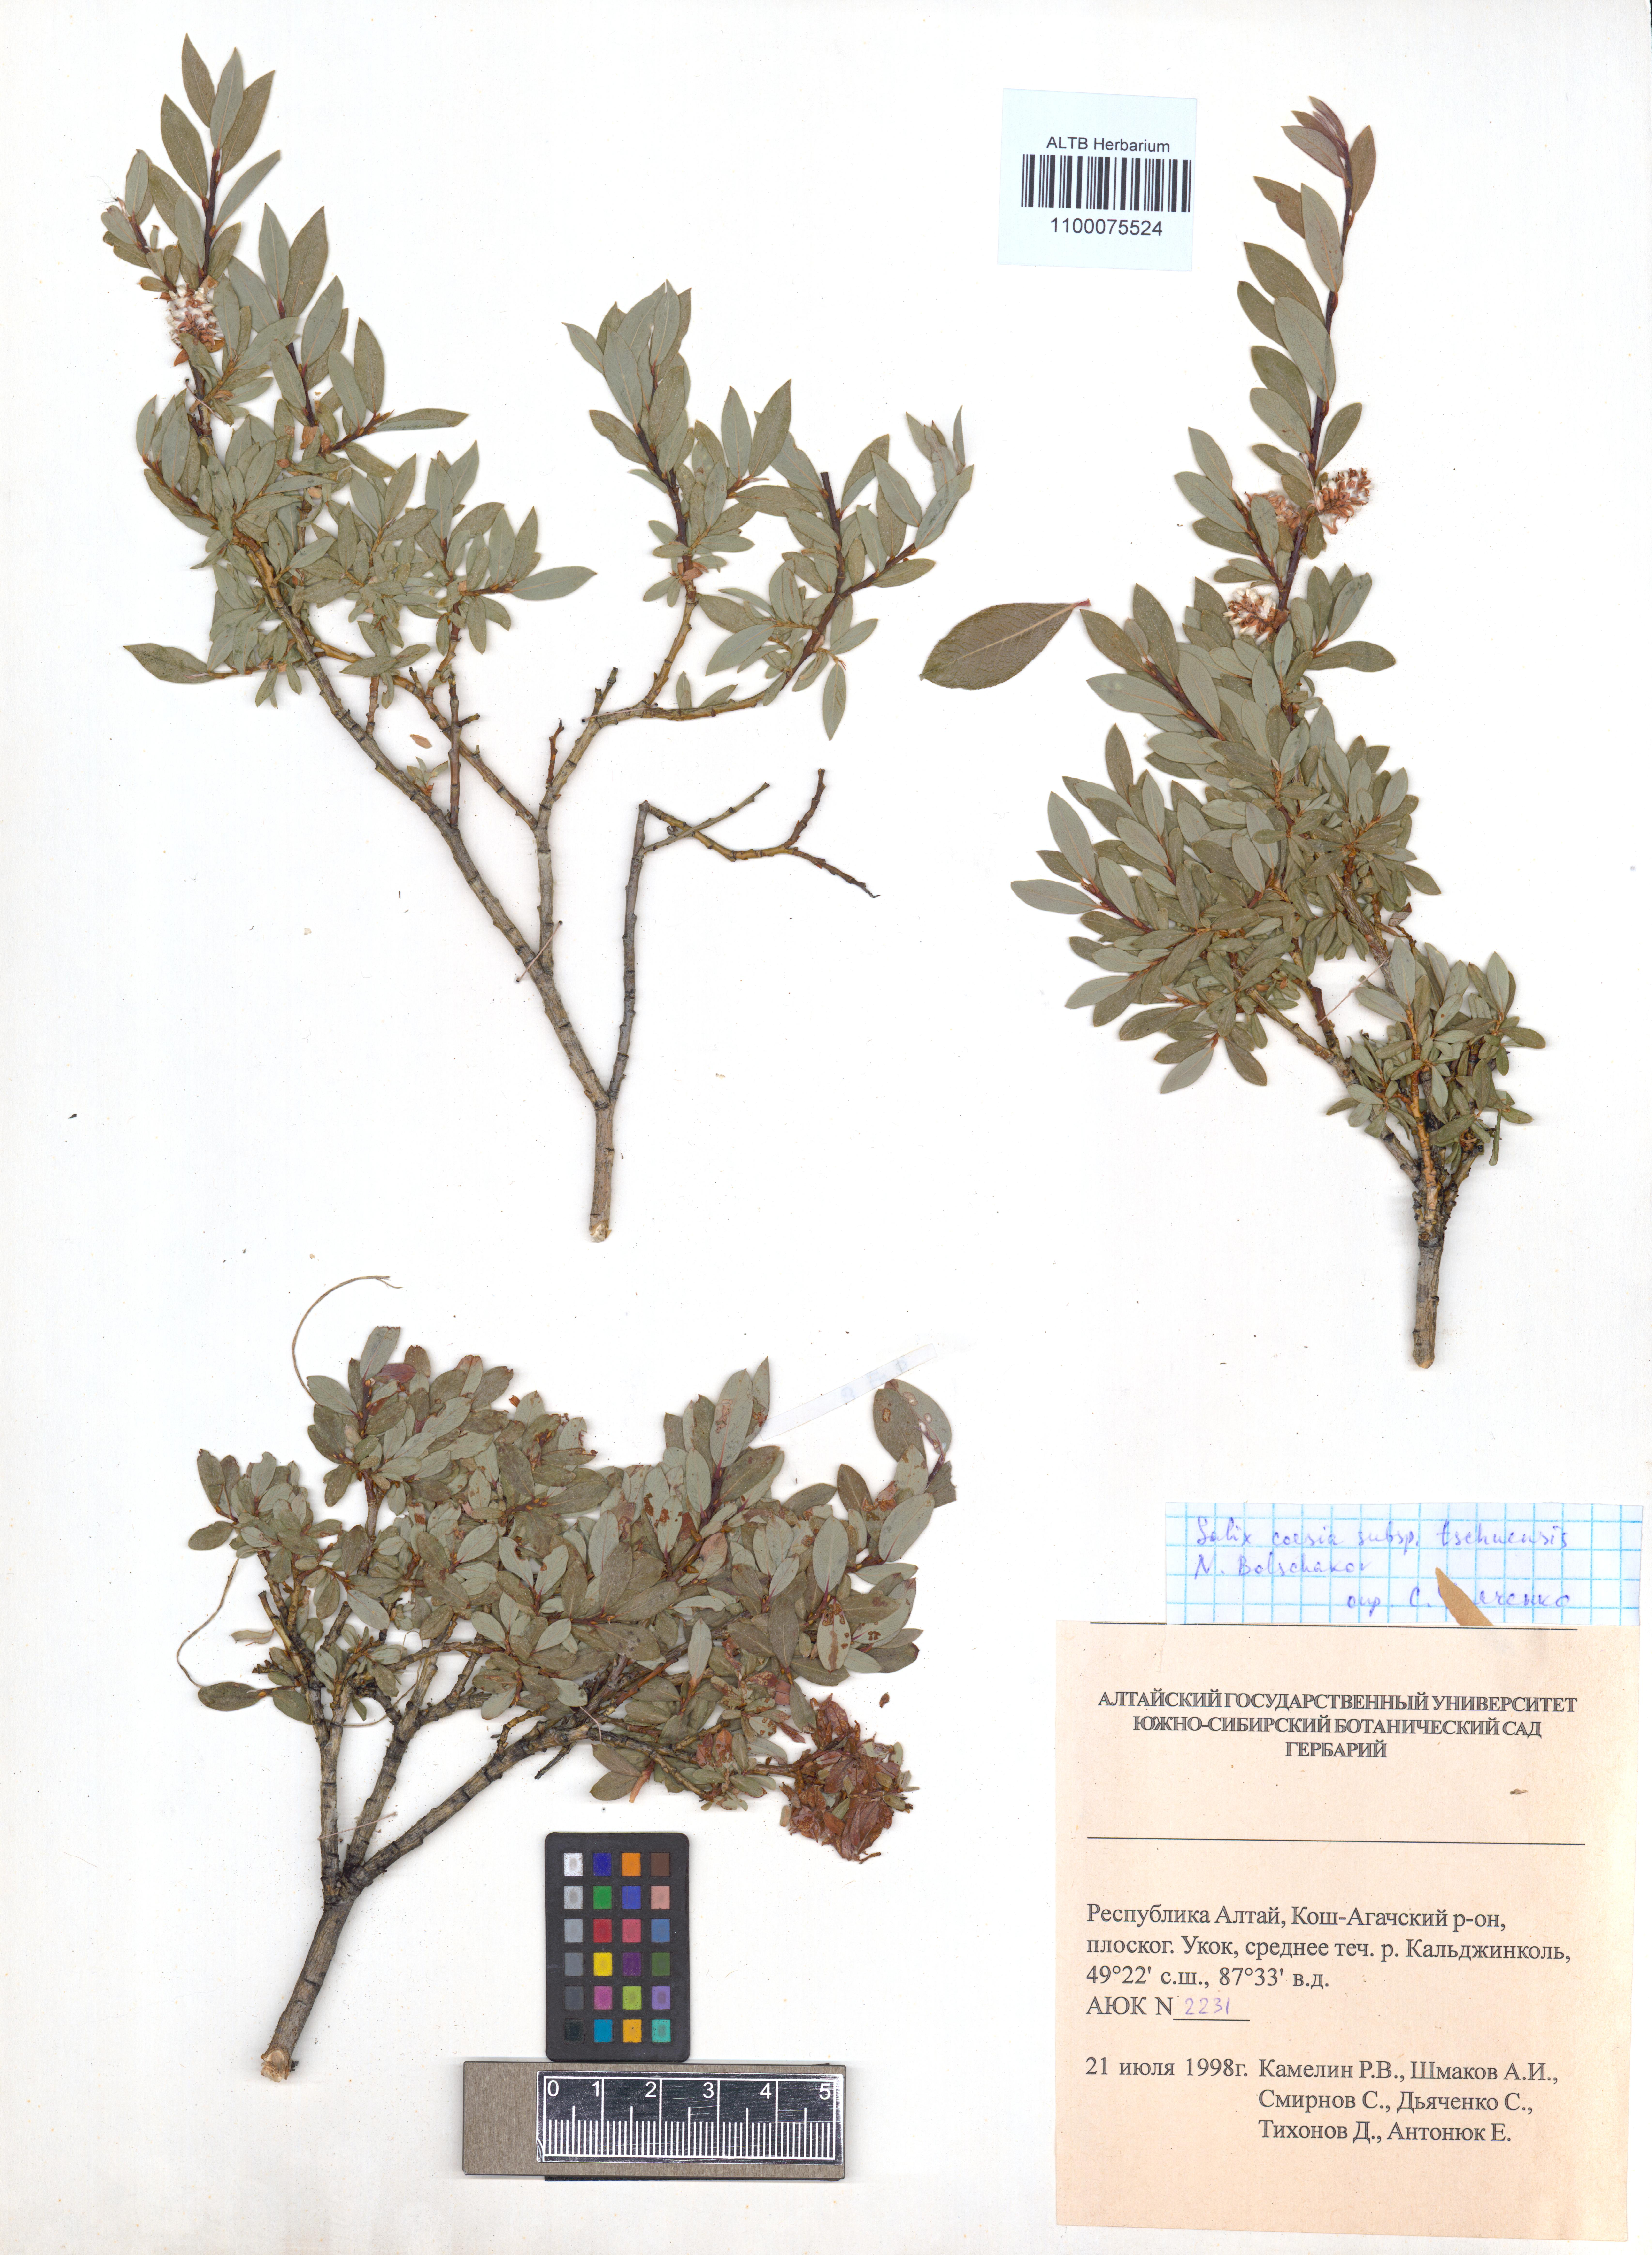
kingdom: Plantae
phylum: Tracheophyta
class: Magnoliopsida
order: Malpighiales
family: Salicaceae
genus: Salix
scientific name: Salix caesia
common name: Blue willow
